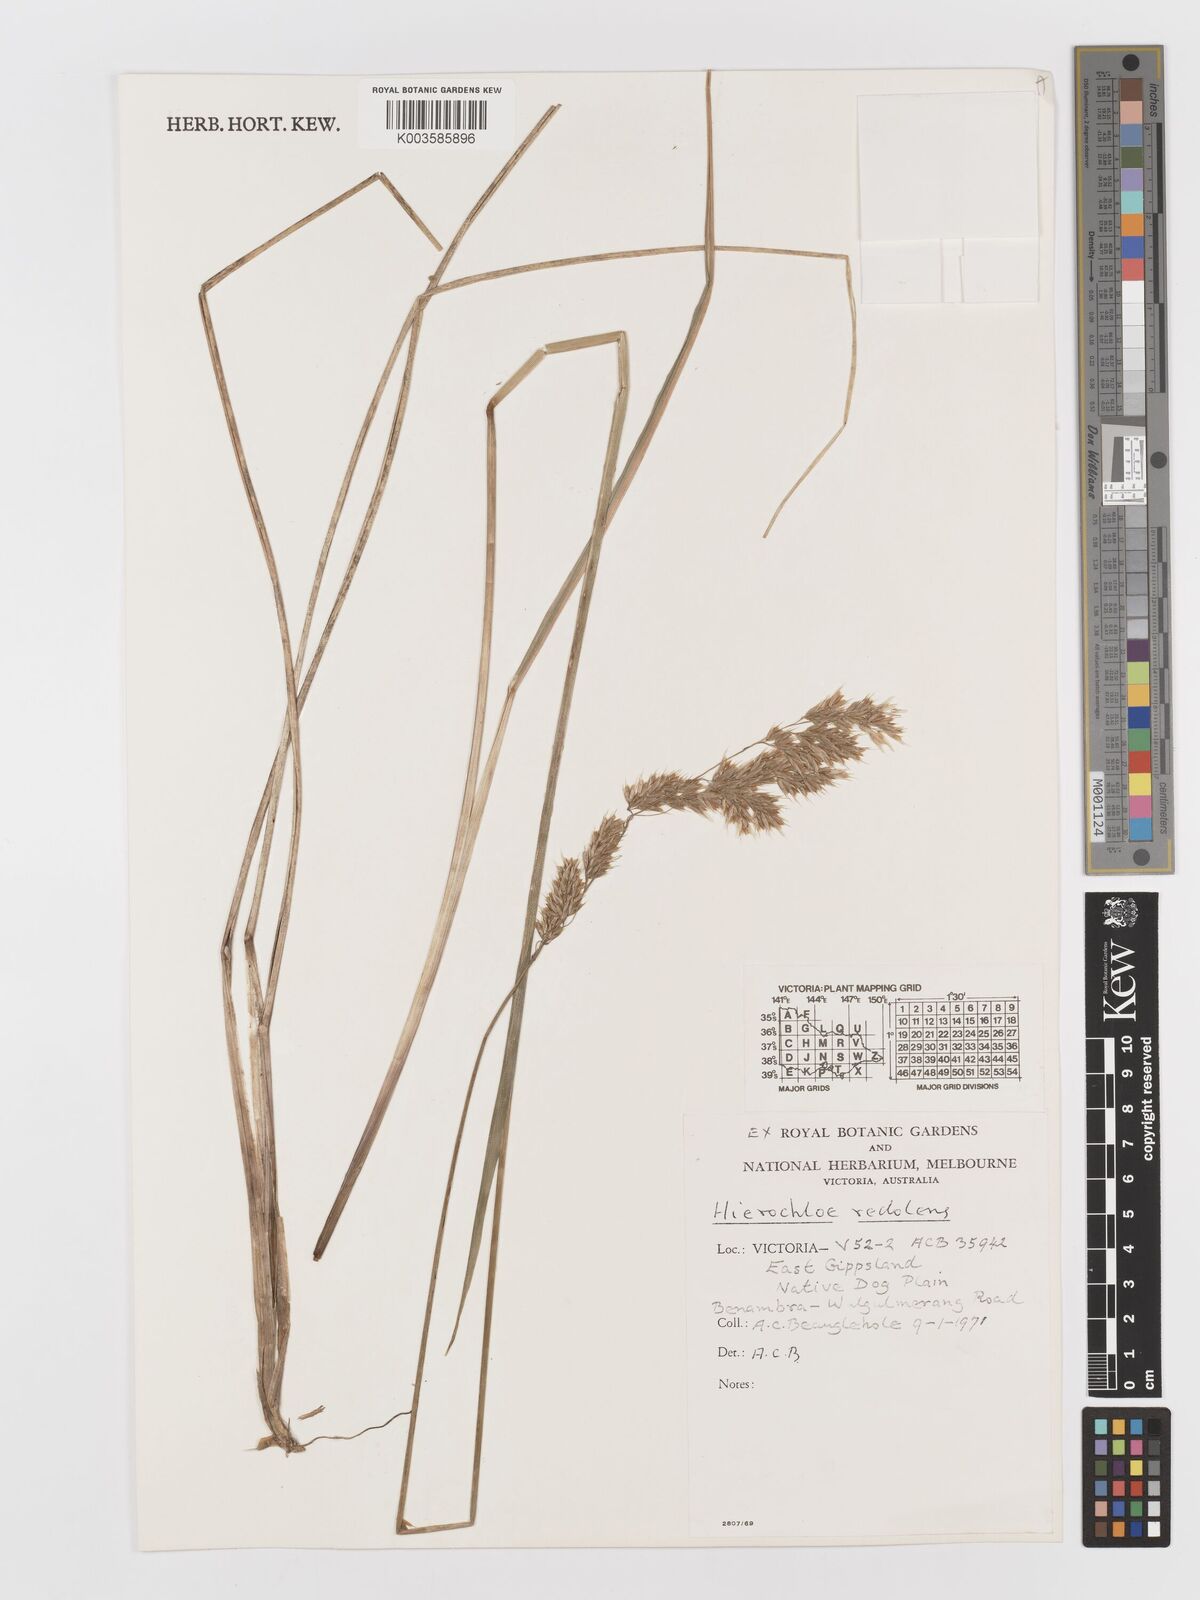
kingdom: Plantae
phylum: Tracheophyta
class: Liliopsida
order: Poales
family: Poaceae
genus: Anthoxanthum
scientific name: Anthoxanthum redolens
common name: Sweet holy grass
